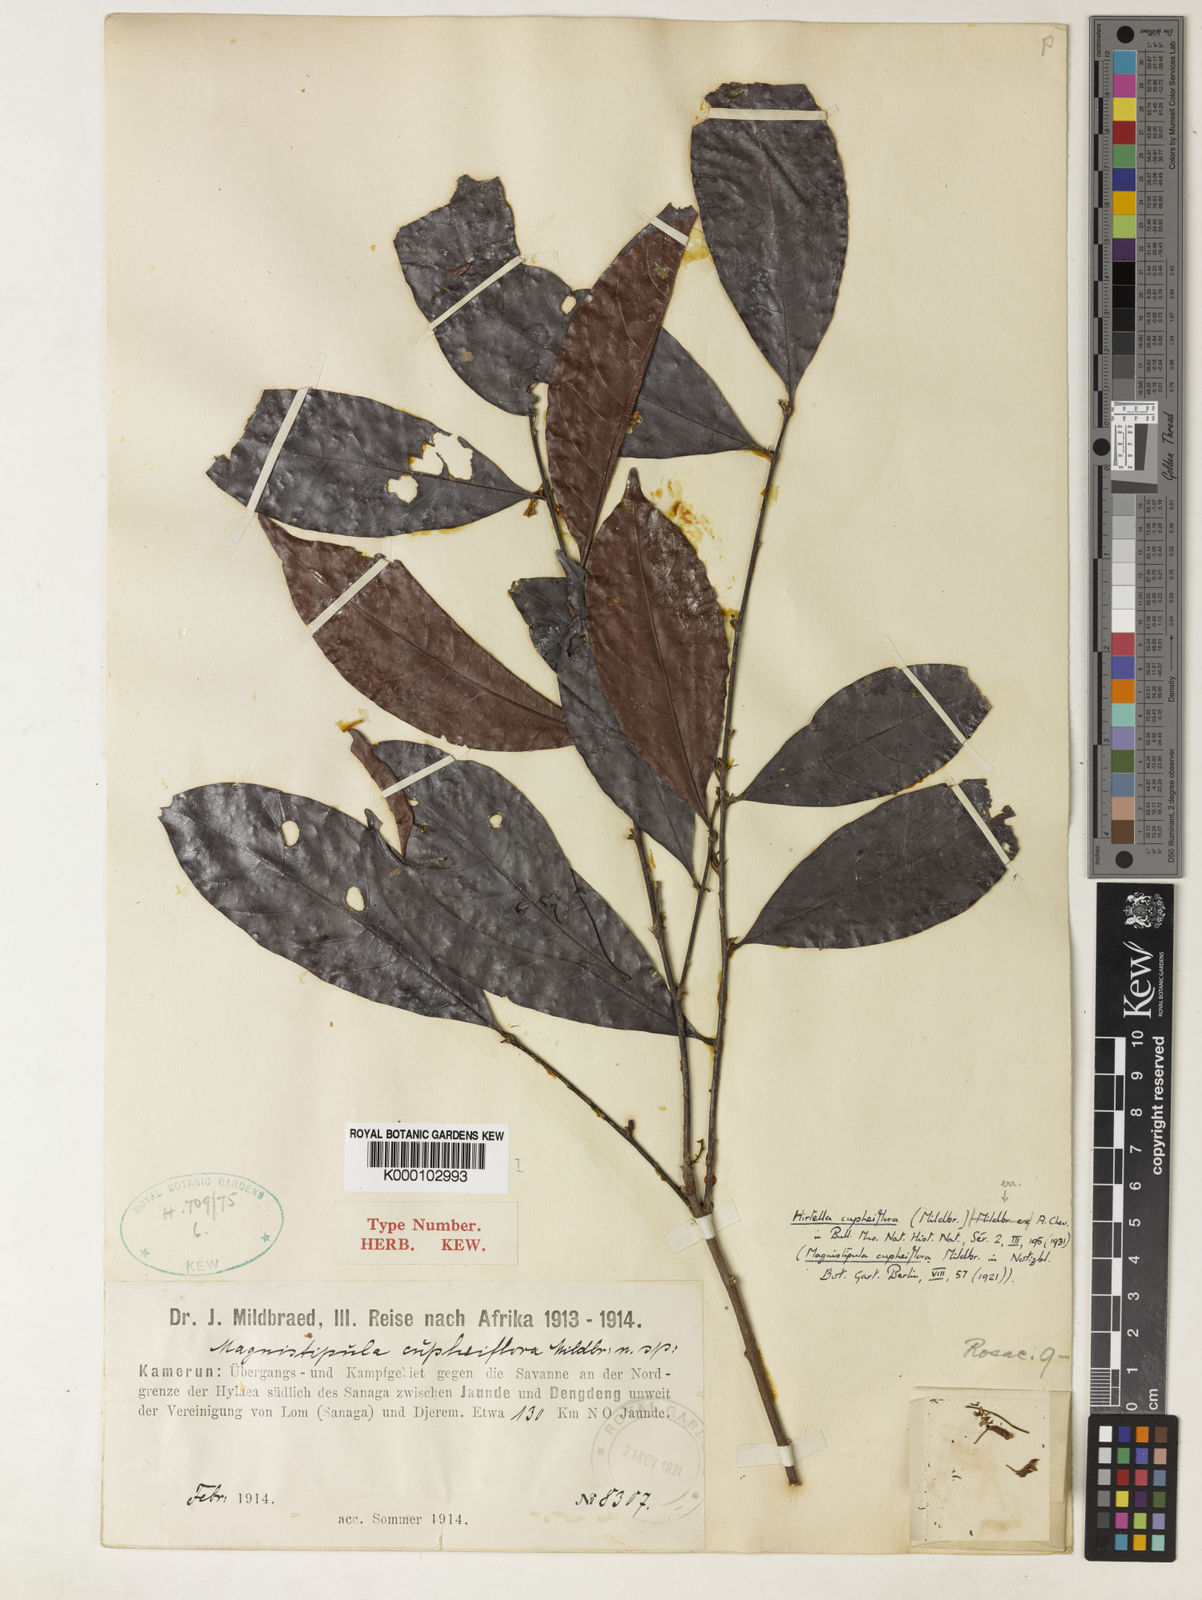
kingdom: Plantae
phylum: Tracheophyta
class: Magnoliopsida
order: Malpighiales
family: Chrysobalanaceae
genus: Magnistipula
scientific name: Magnistipula cupheiflora
